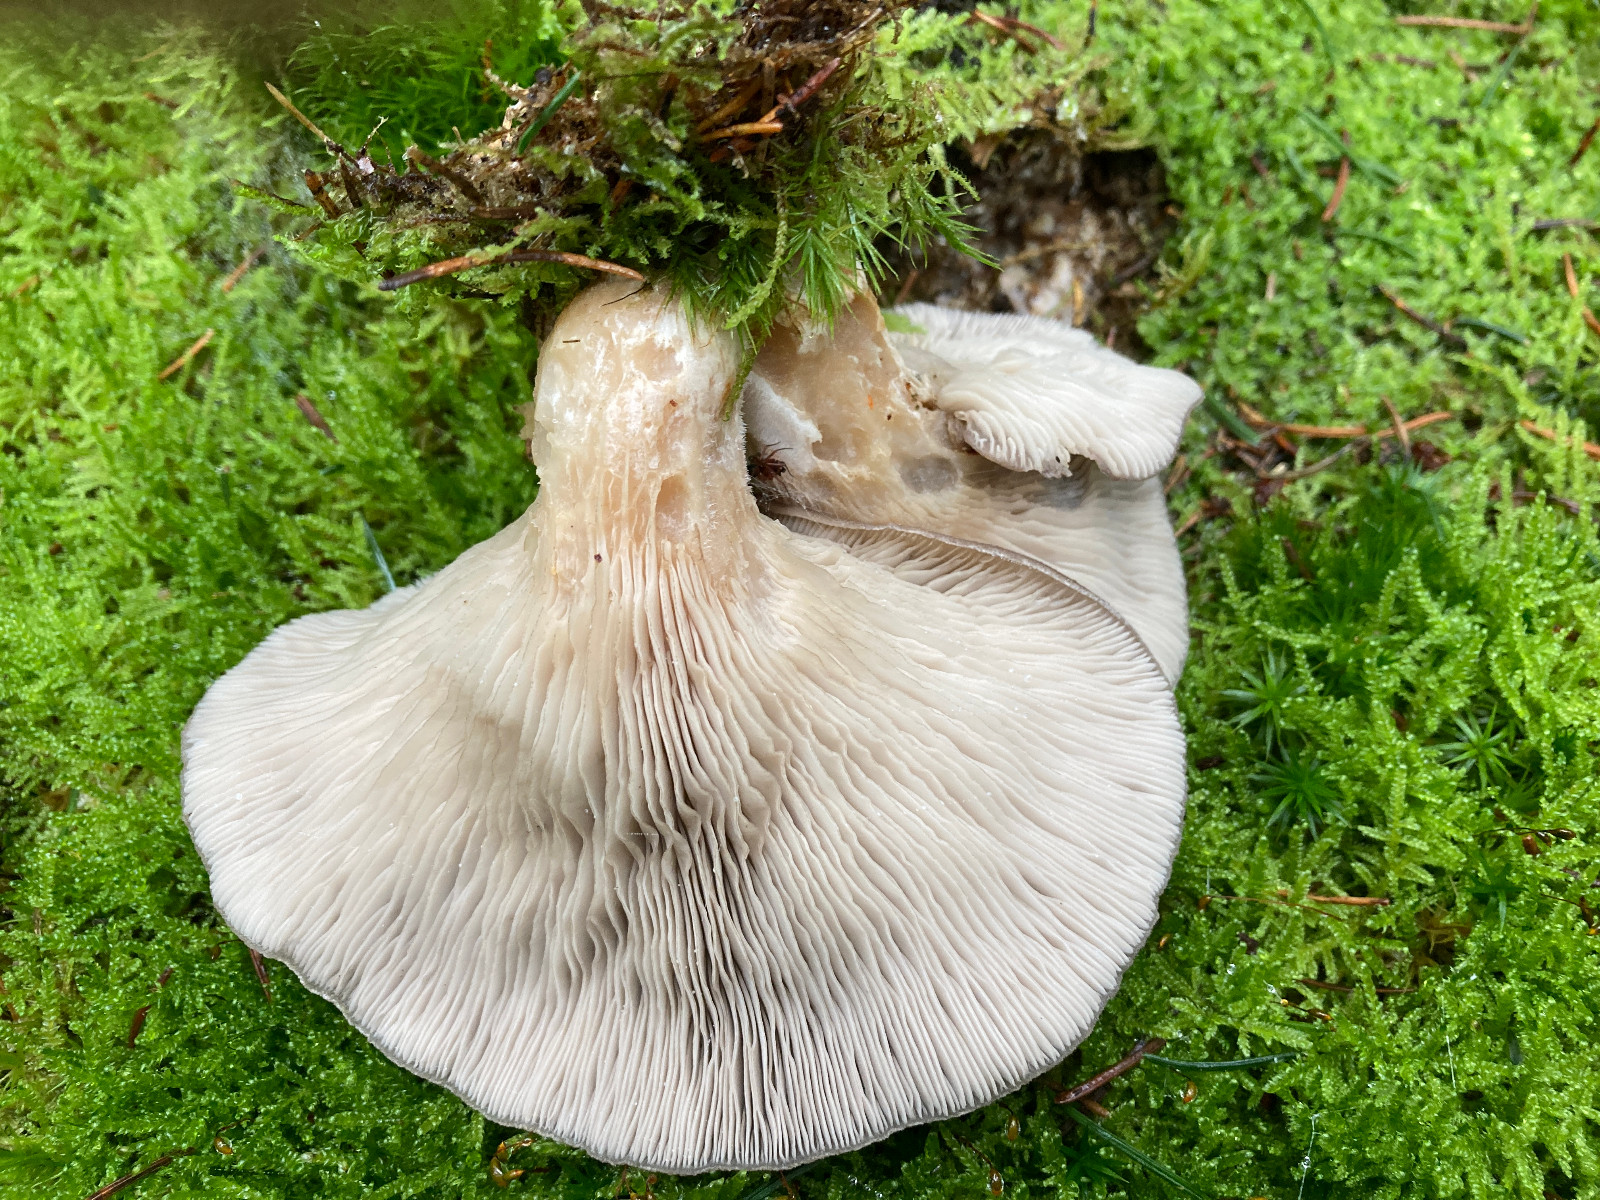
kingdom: Fungi
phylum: Basidiomycota
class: Agaricomycetes
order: Agaricales
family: Pleurotaceae
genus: Pleurotus
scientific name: Pleurotus ostreatus
